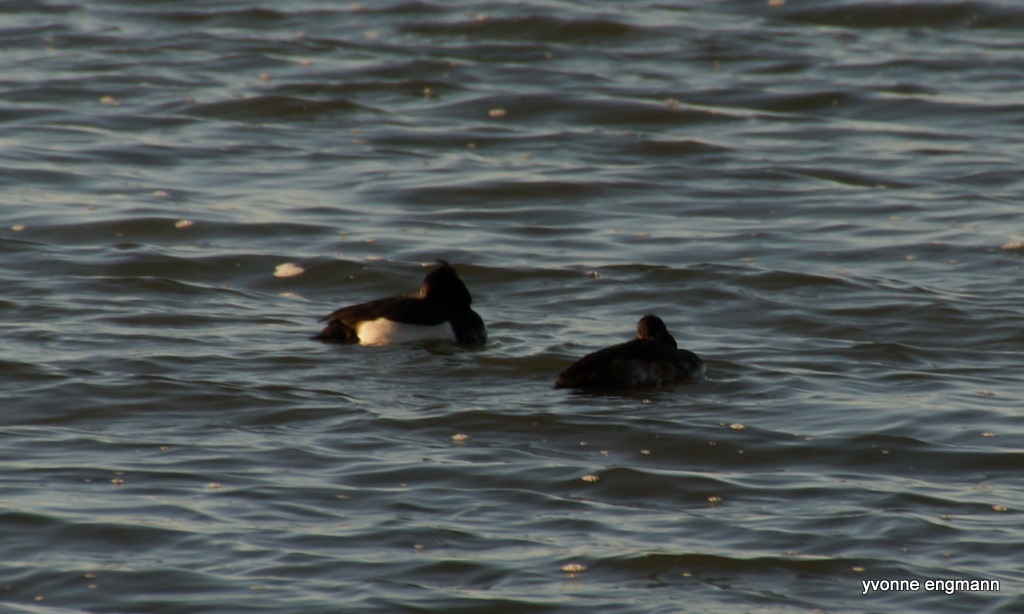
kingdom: Animalia
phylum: Chordata
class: Aves
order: Anseriformes
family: Anatidae
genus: Aythya
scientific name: Aythya fuligula
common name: Troldand
